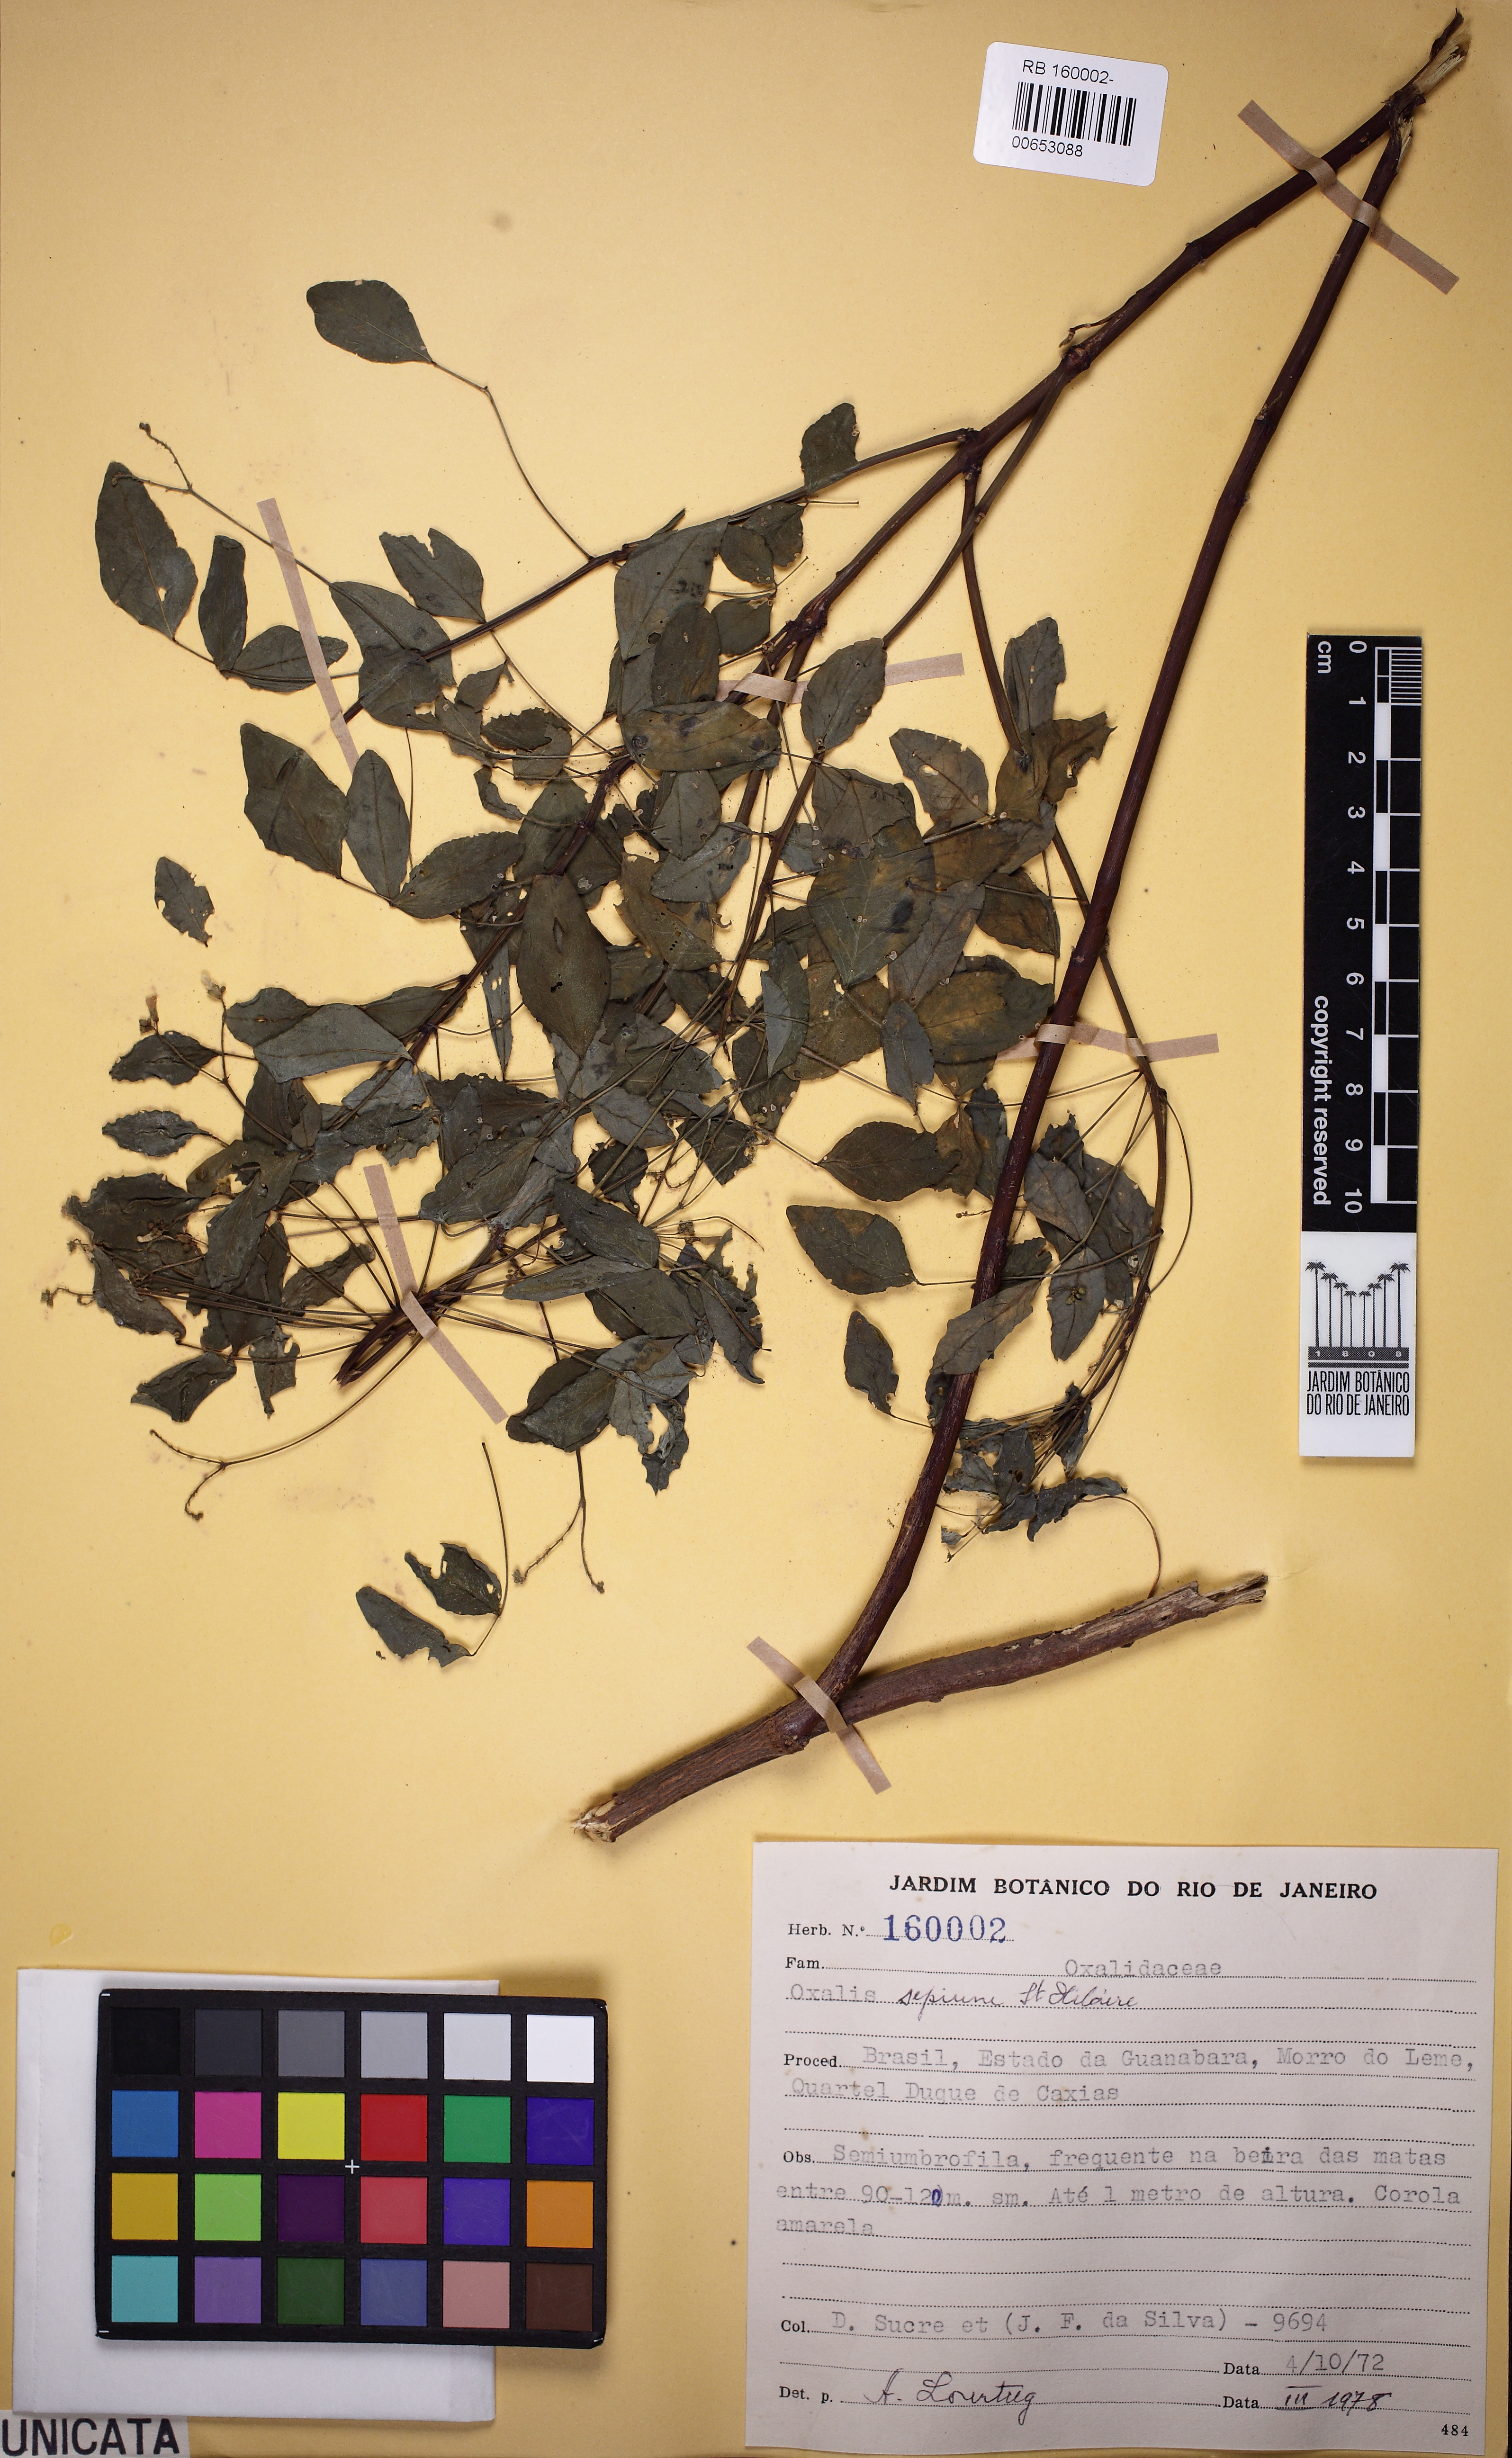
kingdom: Plantae
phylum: Tracheophyta
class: Magnoliopsida
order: Oxalidales
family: Oxalidaceae
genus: Oxalis
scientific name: Oxalis sepium
